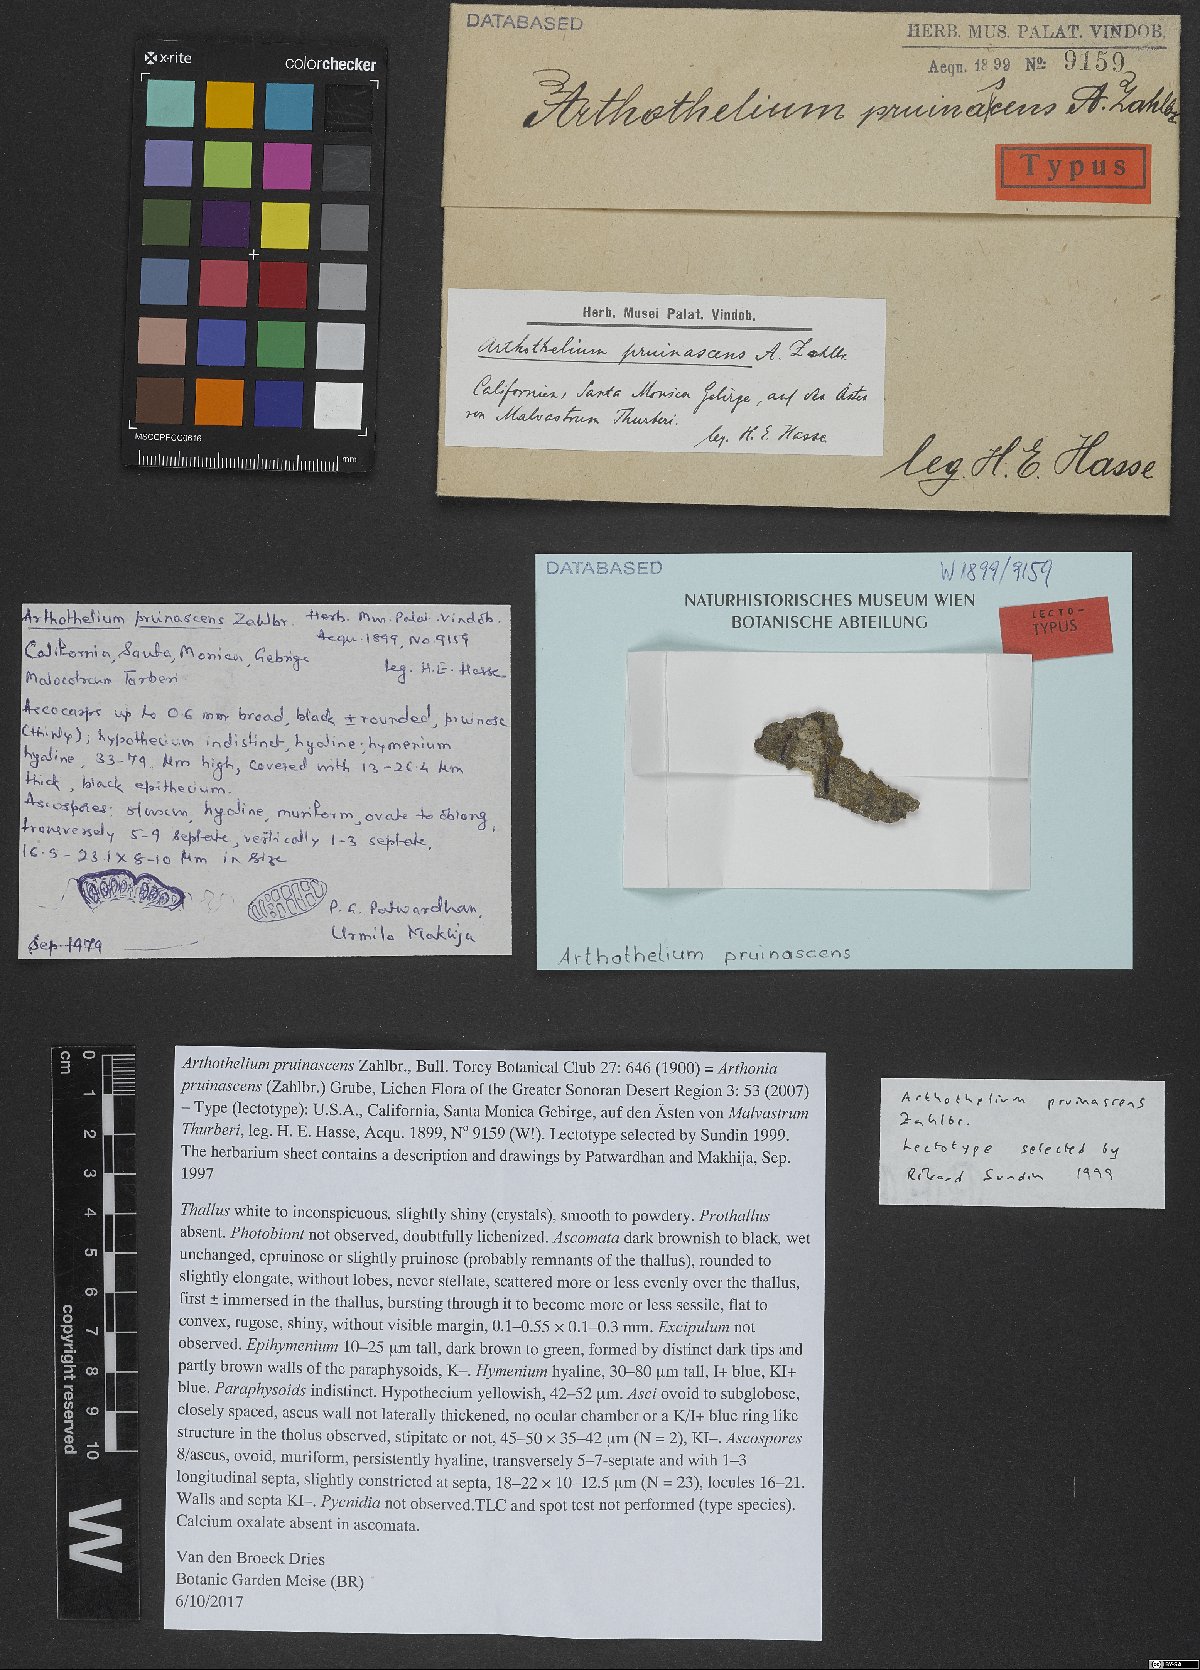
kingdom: Fungi
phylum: Ascomycota
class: Arthoniomycetes
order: Arthoniales
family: Arthoniaceae
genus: Arthonia
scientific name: Arthonia pruinascens
